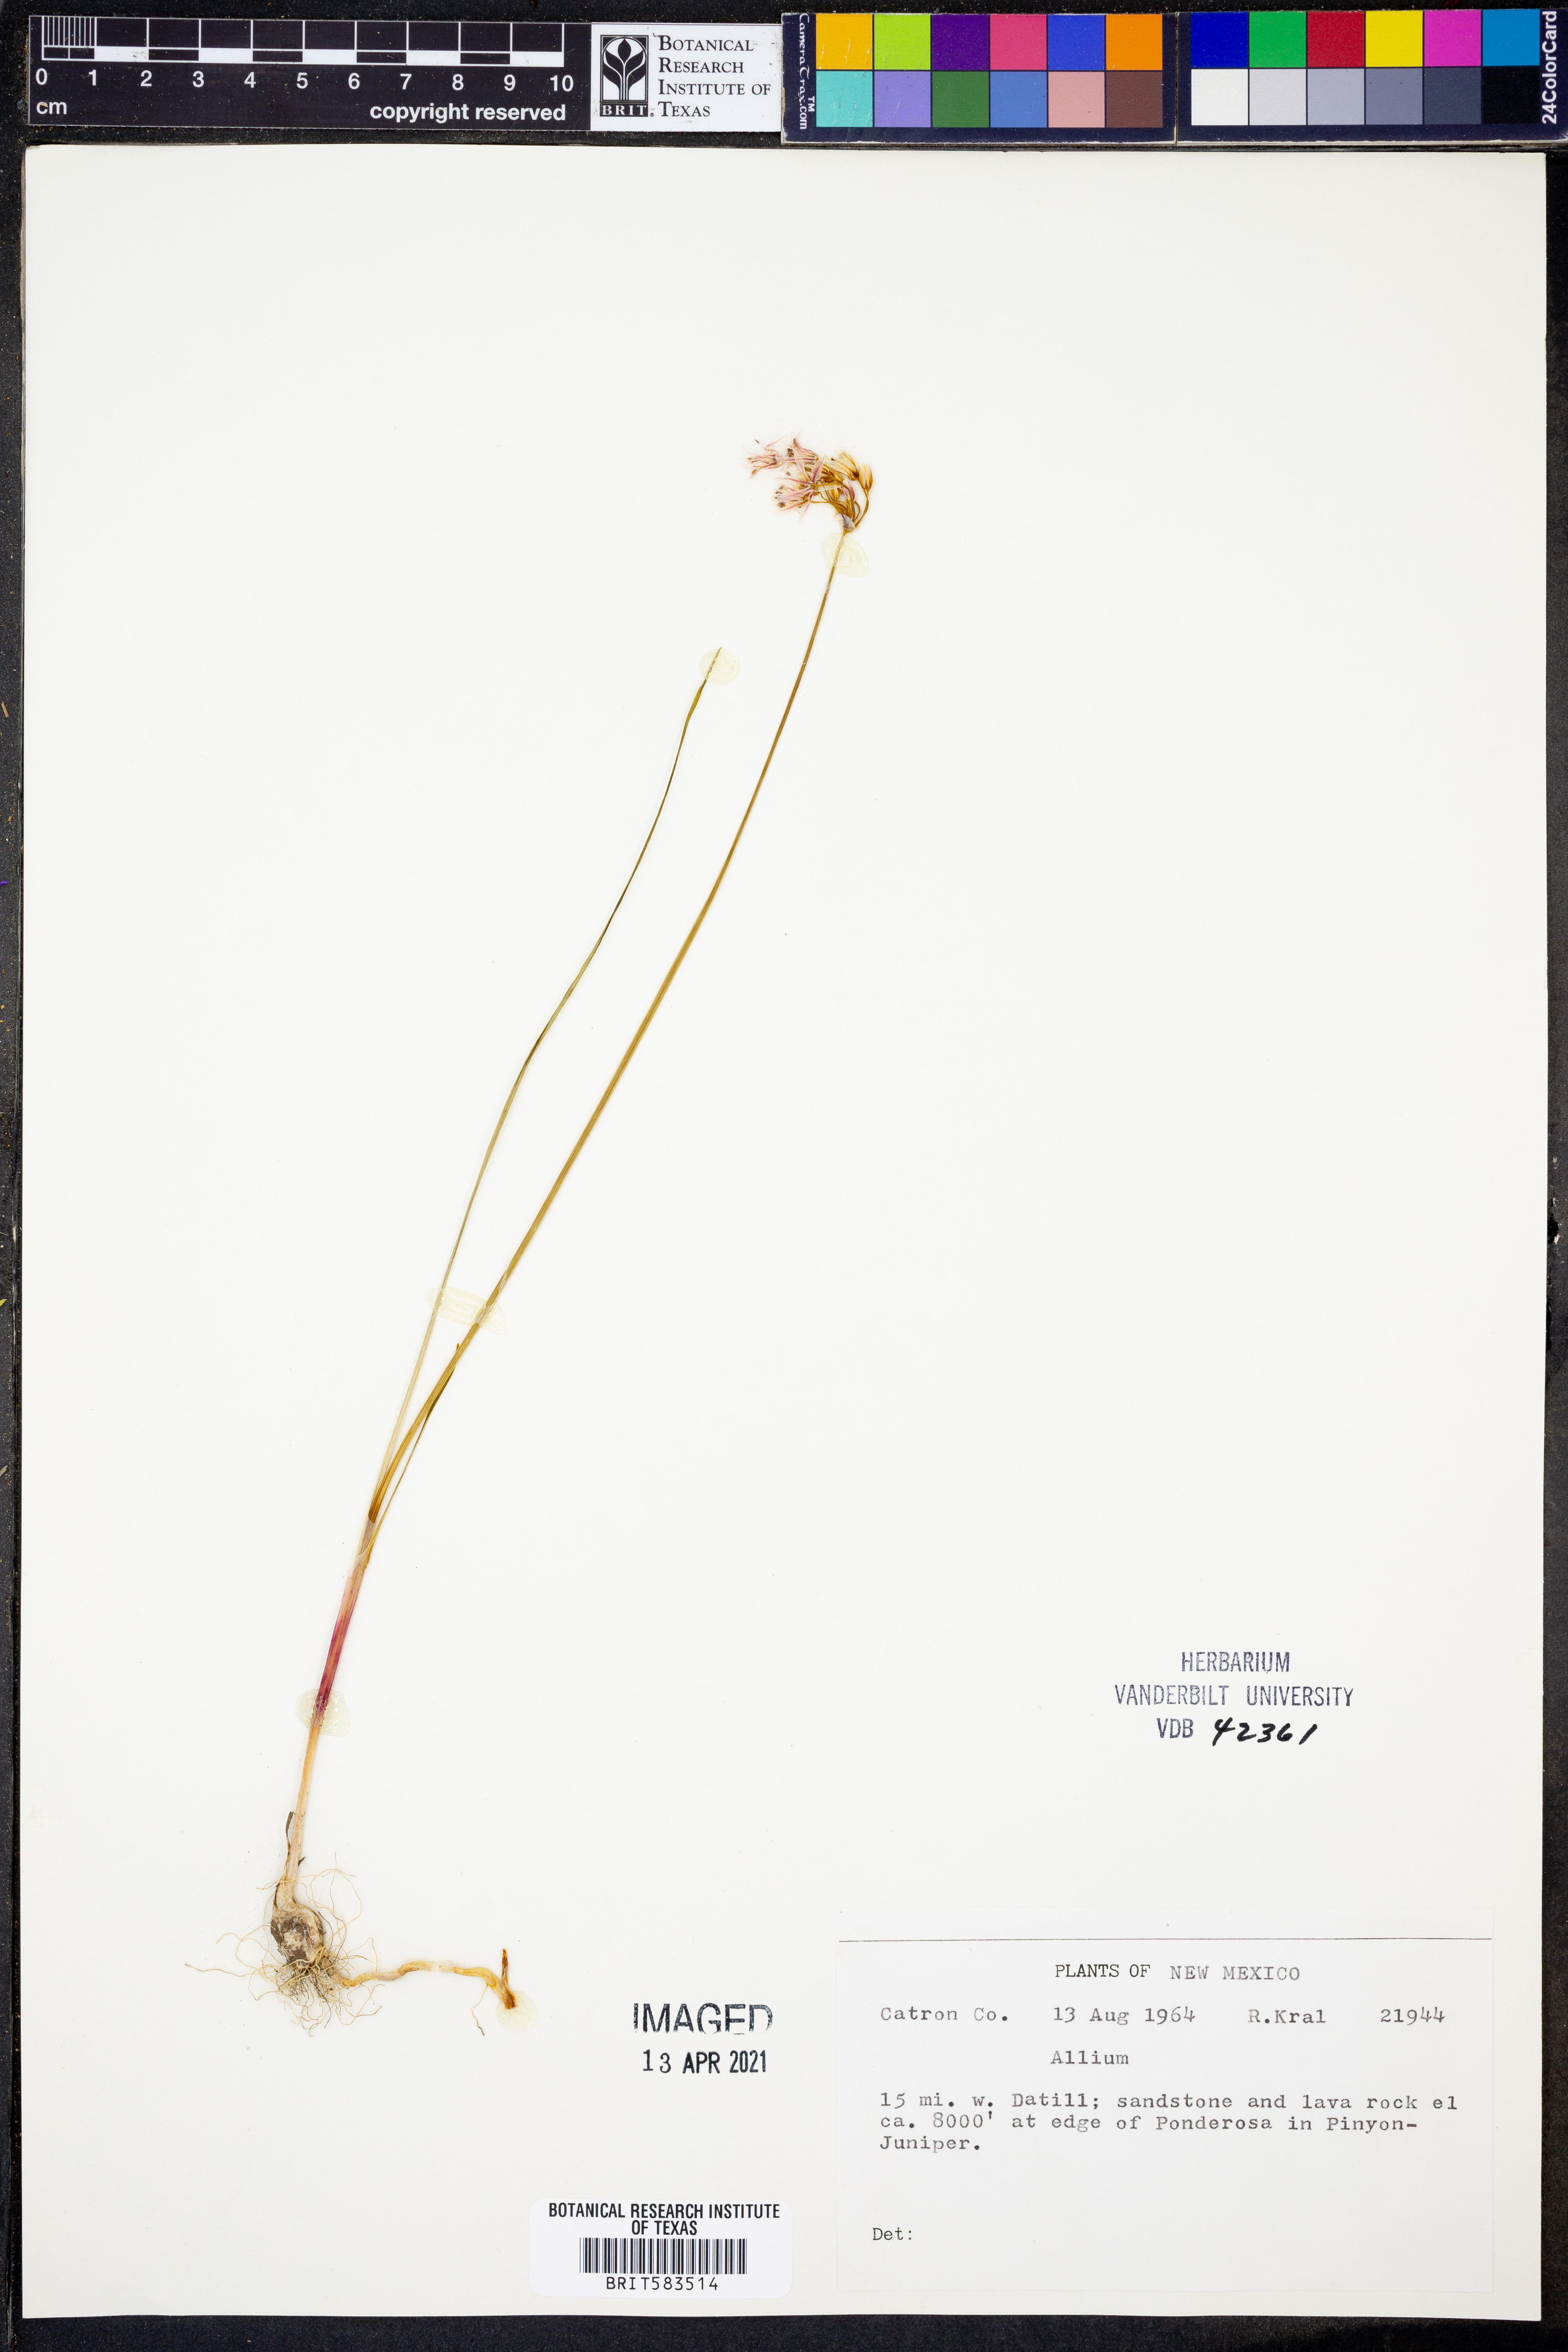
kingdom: Plantae
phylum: Tracheophyta
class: Liliopsida
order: Asparagales
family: Amaryllidaceae
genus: Allium
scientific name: Allium
